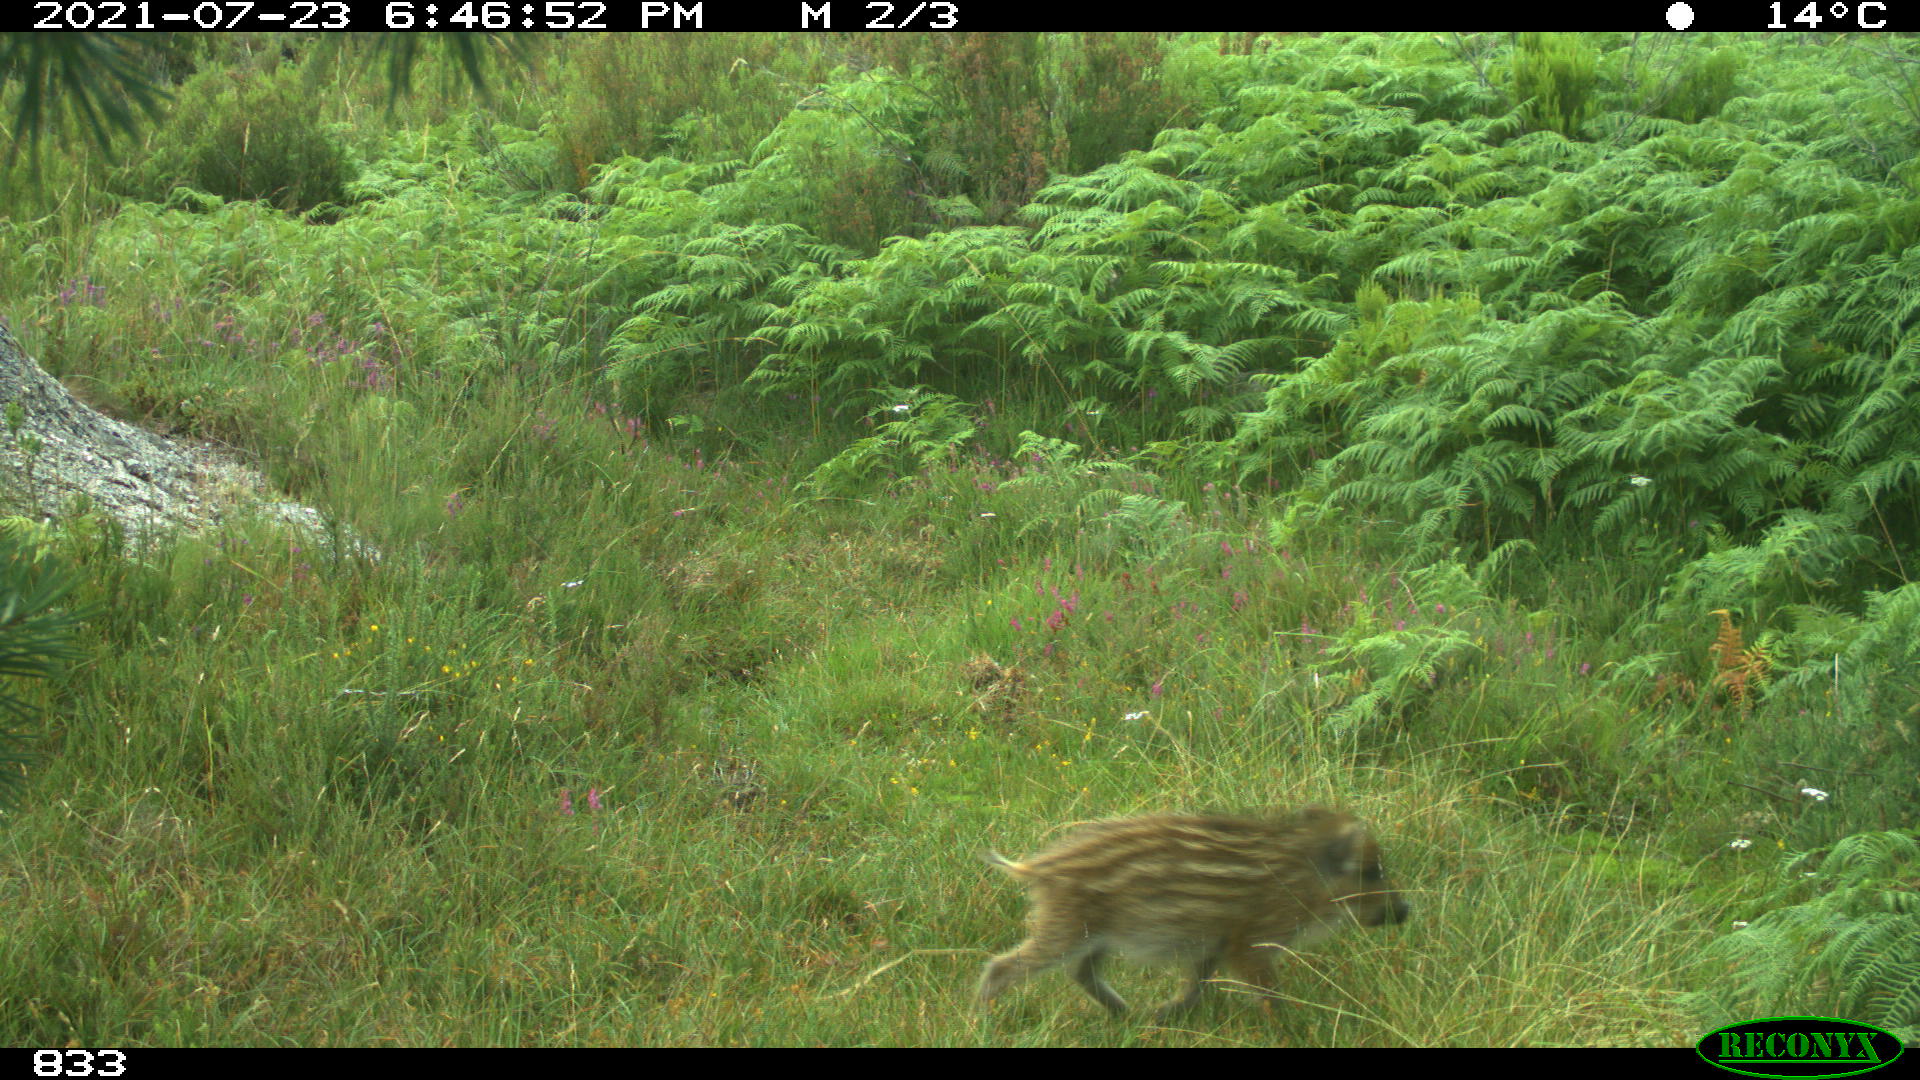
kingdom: Animalia
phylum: Chordata
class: Mammalia
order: Artiodactyla
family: Suidae
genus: Sus
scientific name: Sus scrofa
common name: Wild boar
